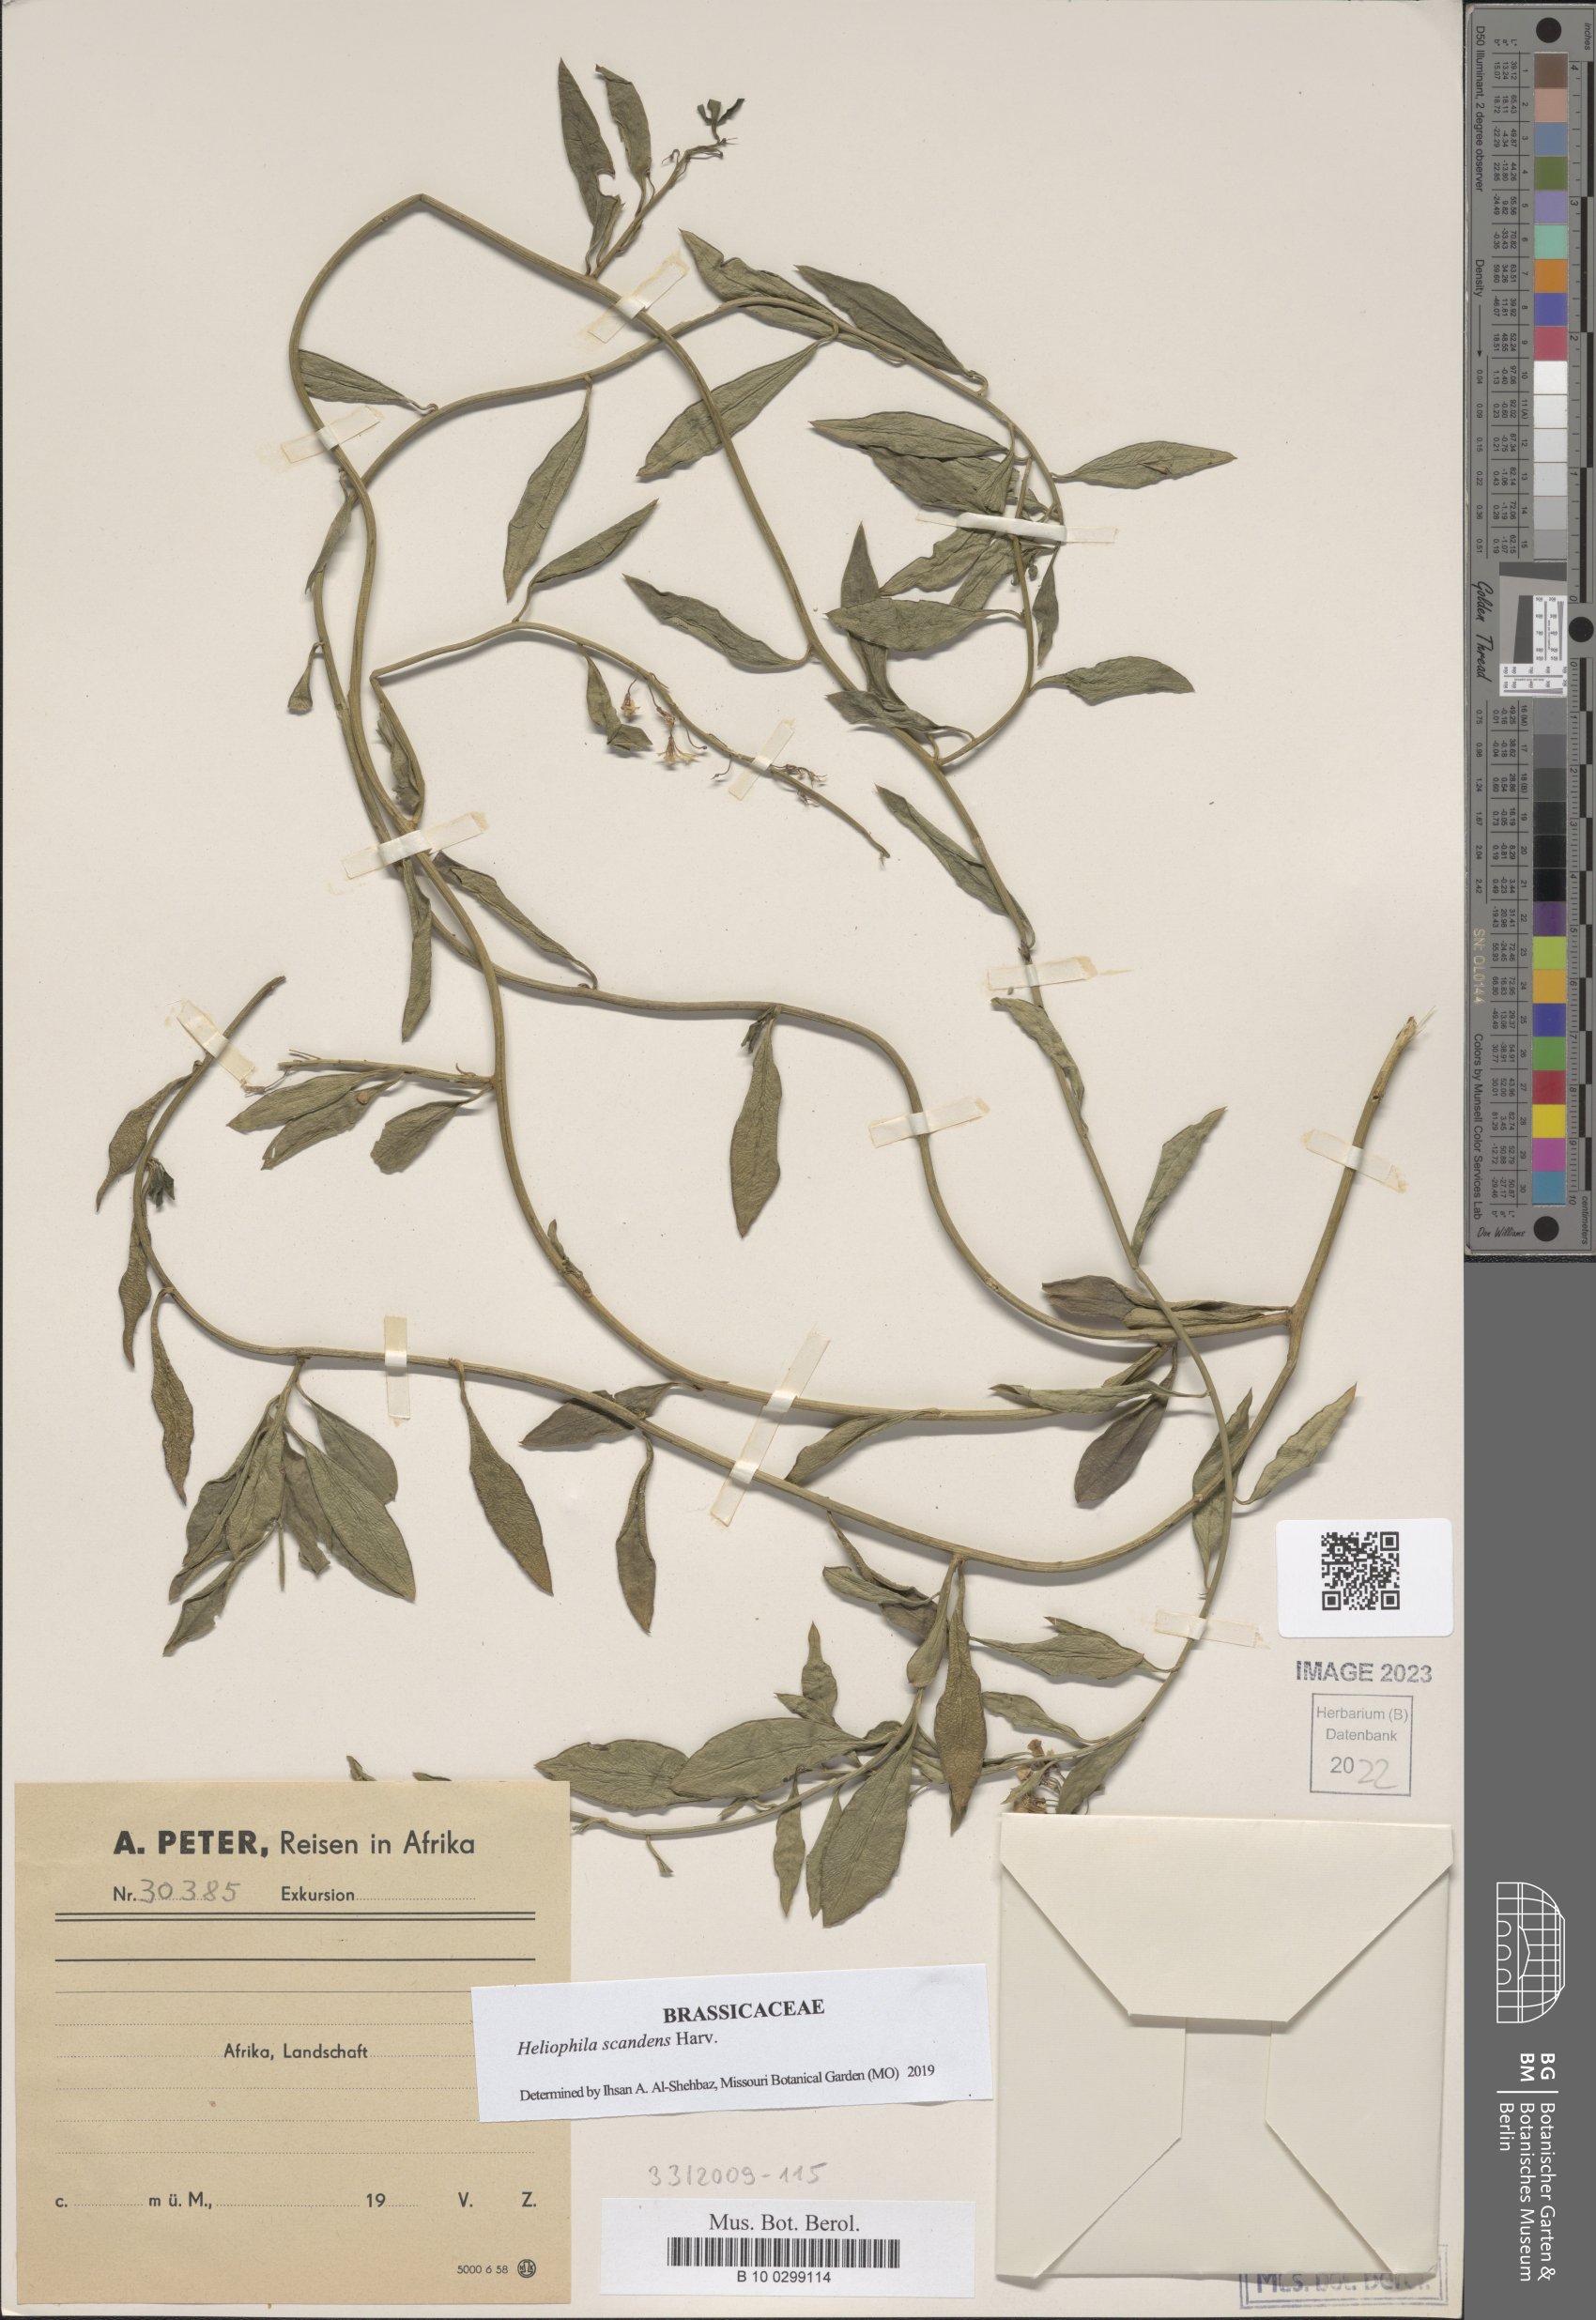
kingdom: Plantae
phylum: Tracheophyta
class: Magnoliopsida
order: Brassicales
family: Brassicaceae
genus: Heliophila
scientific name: Heliophila scandens
